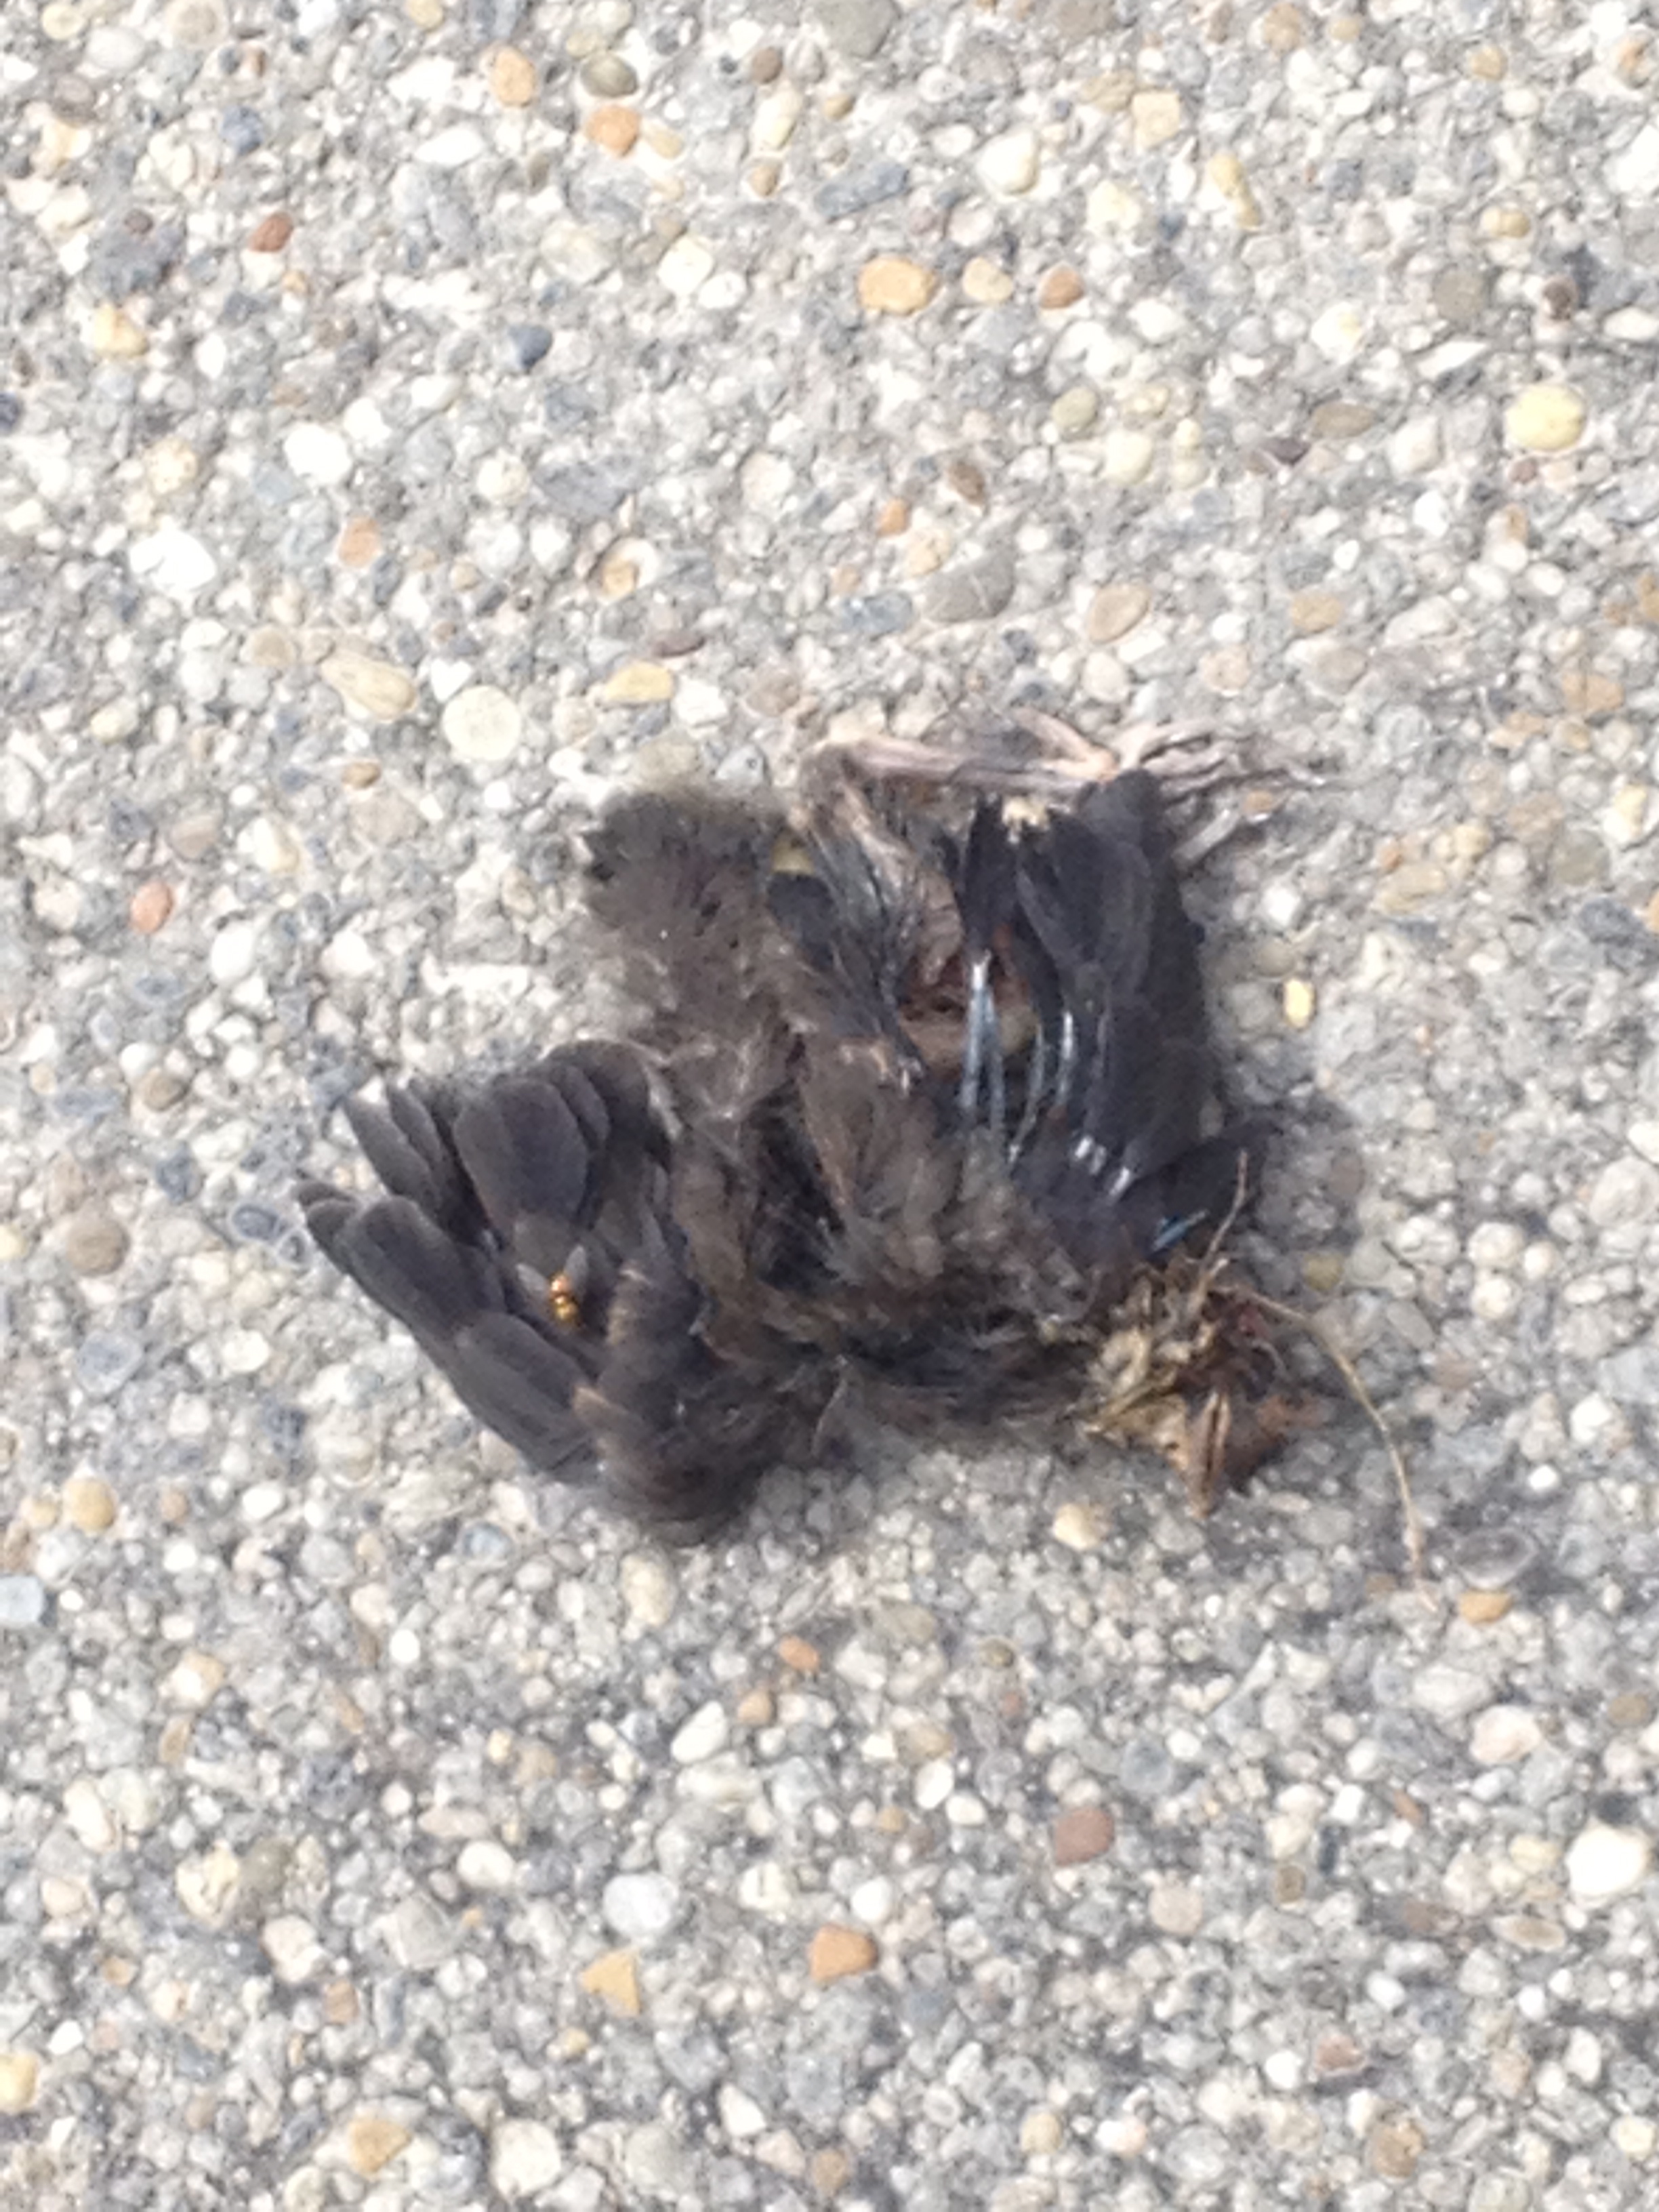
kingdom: Animalia
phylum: Chordata
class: Aves
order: Passeriformes
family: Turdidae
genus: Turdus
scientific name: Turdus merula
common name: Common blackbird
